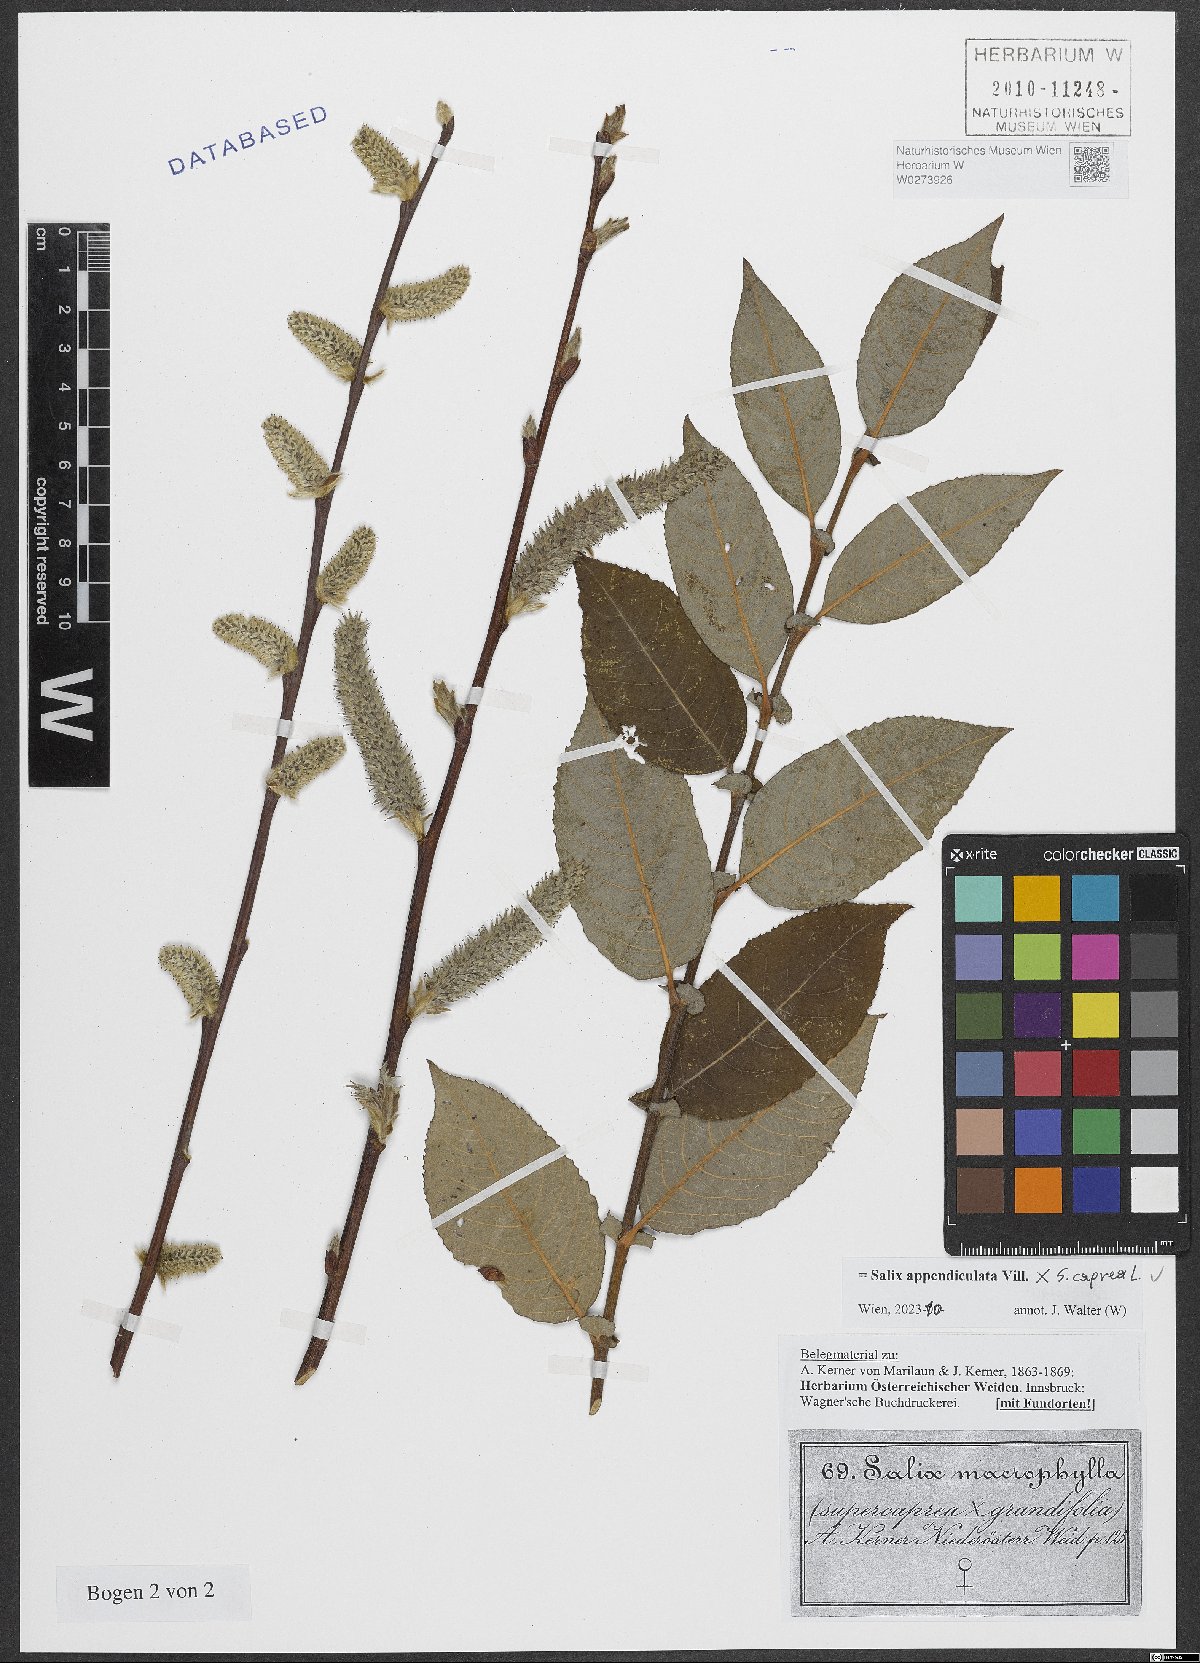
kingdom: Plantae
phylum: Tracheophyta
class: Magnoliopsida
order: Malpighiales
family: Salicaceae
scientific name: Salicaceae
